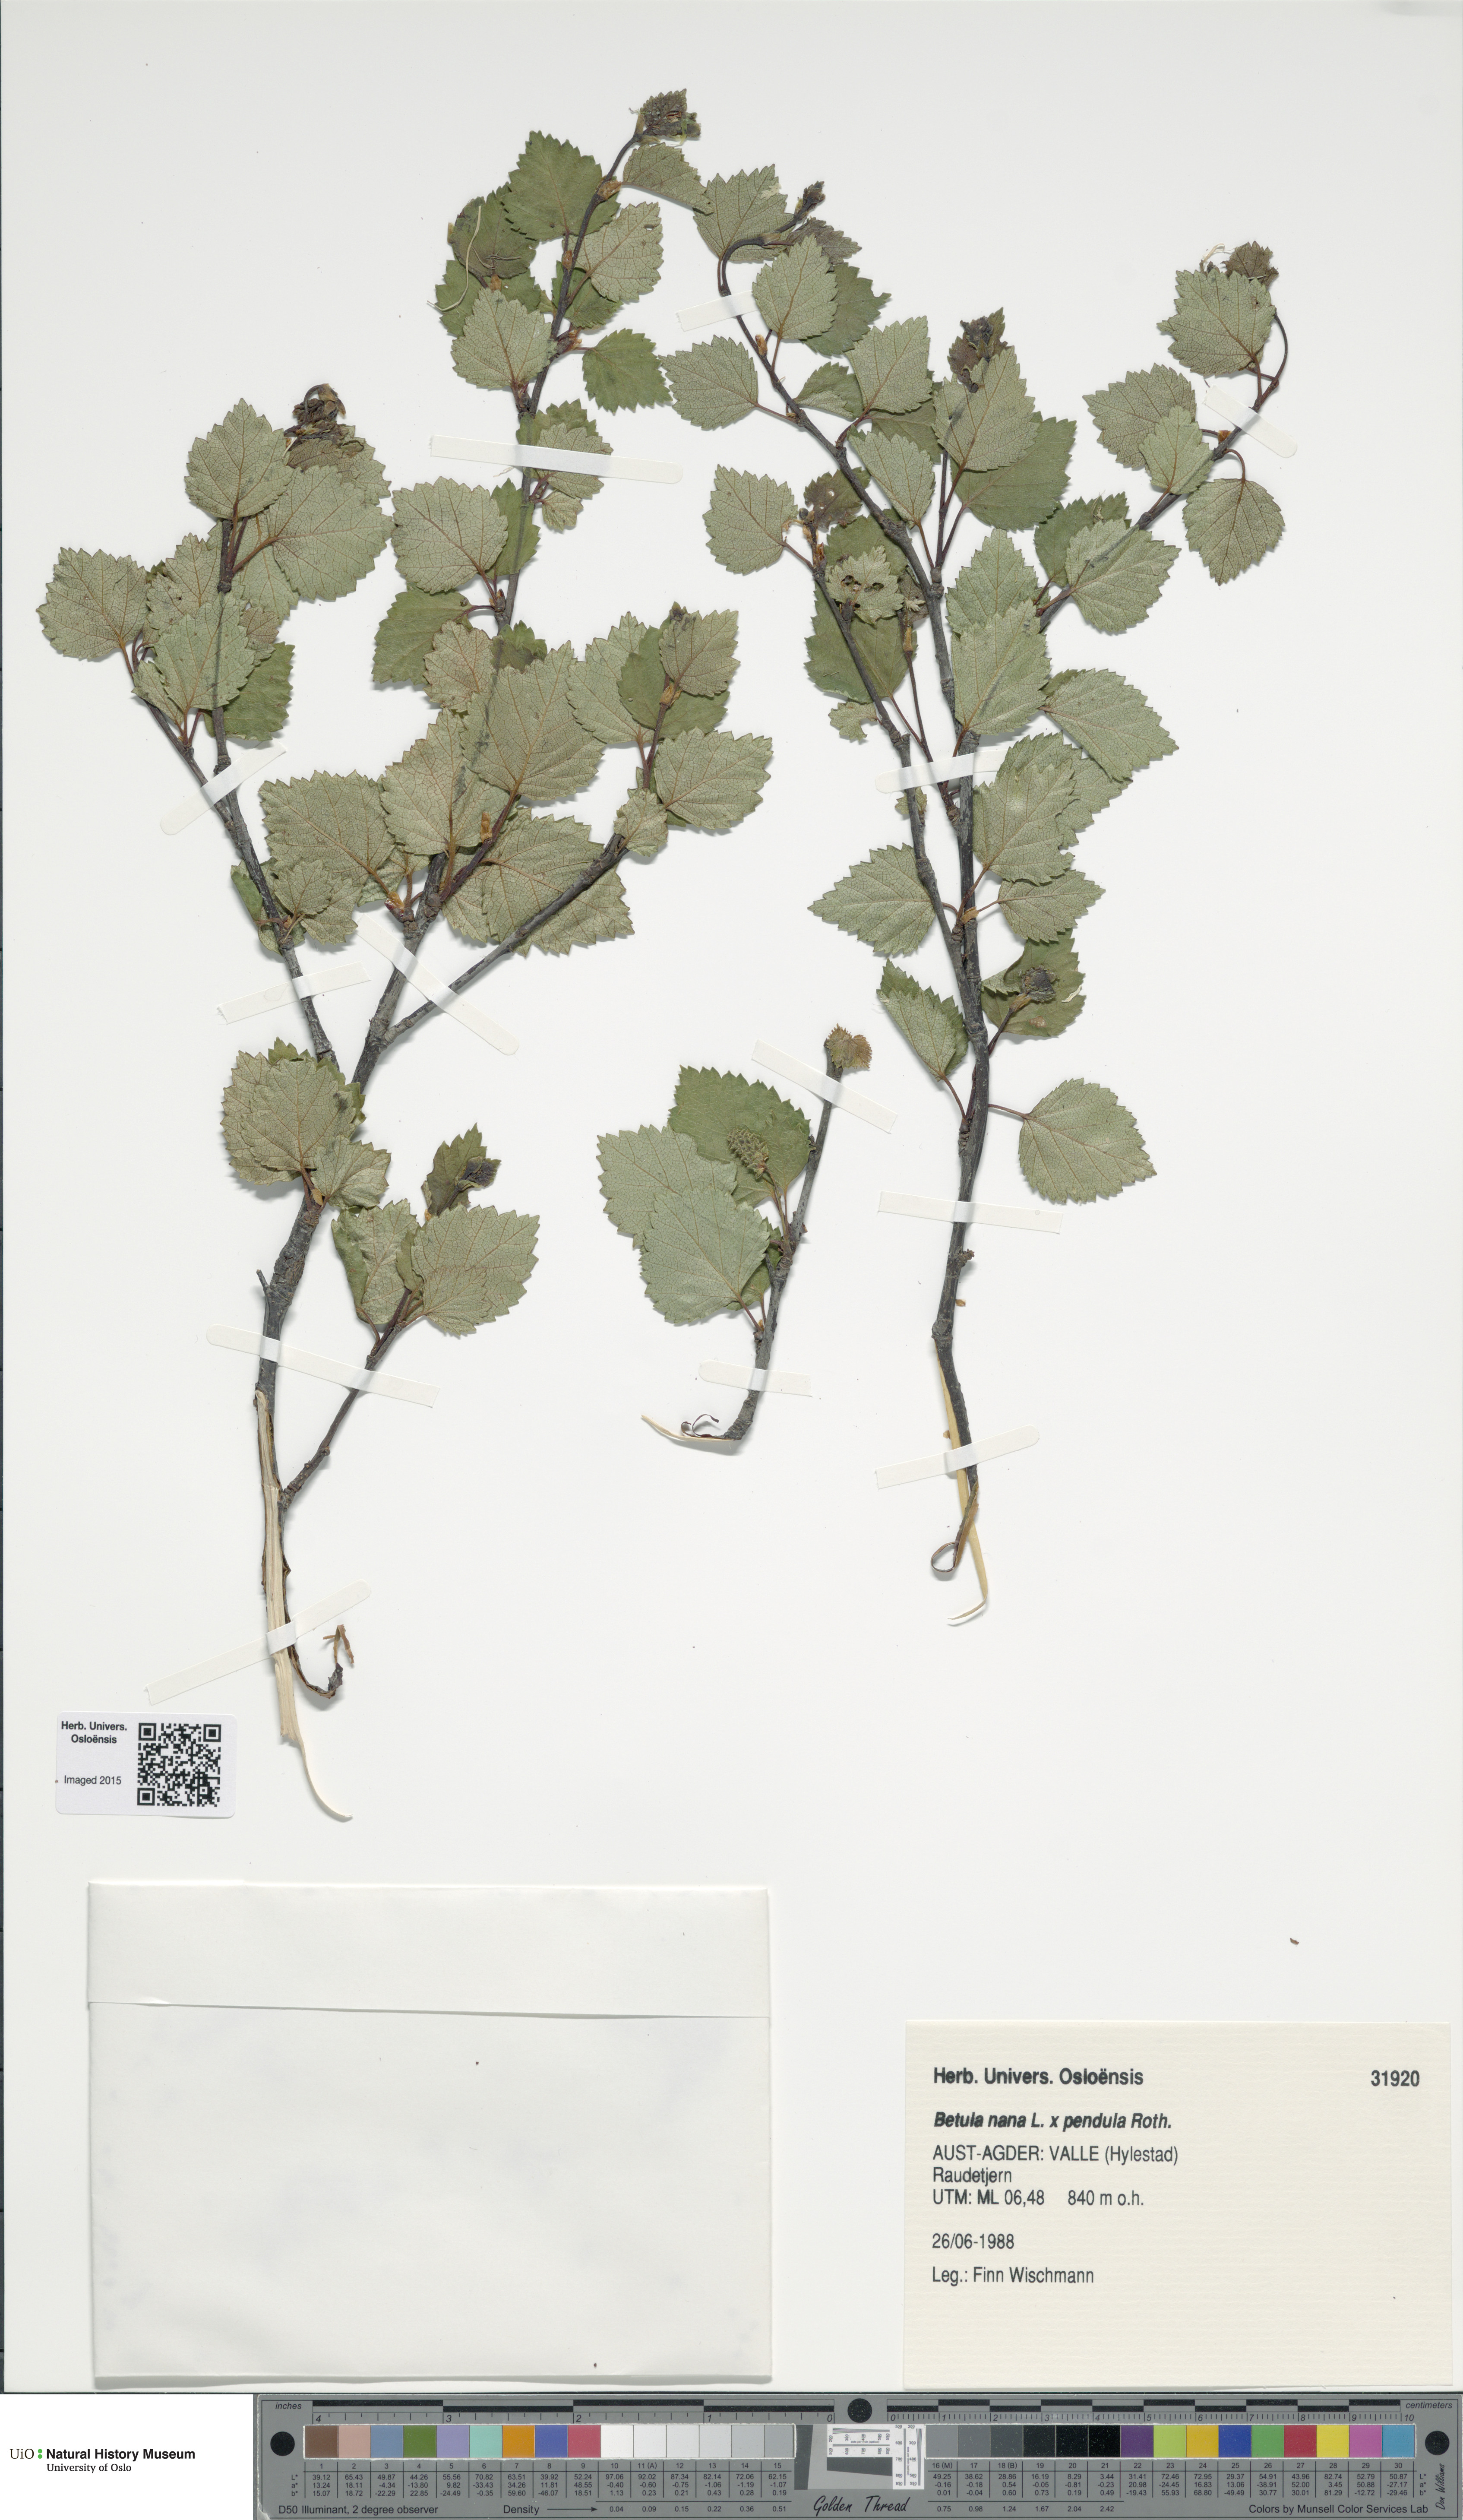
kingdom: Plantae
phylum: Tracheophyta
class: Magnoliopsida
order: Fagales
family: Betulaceae
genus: Betula
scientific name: Betula
